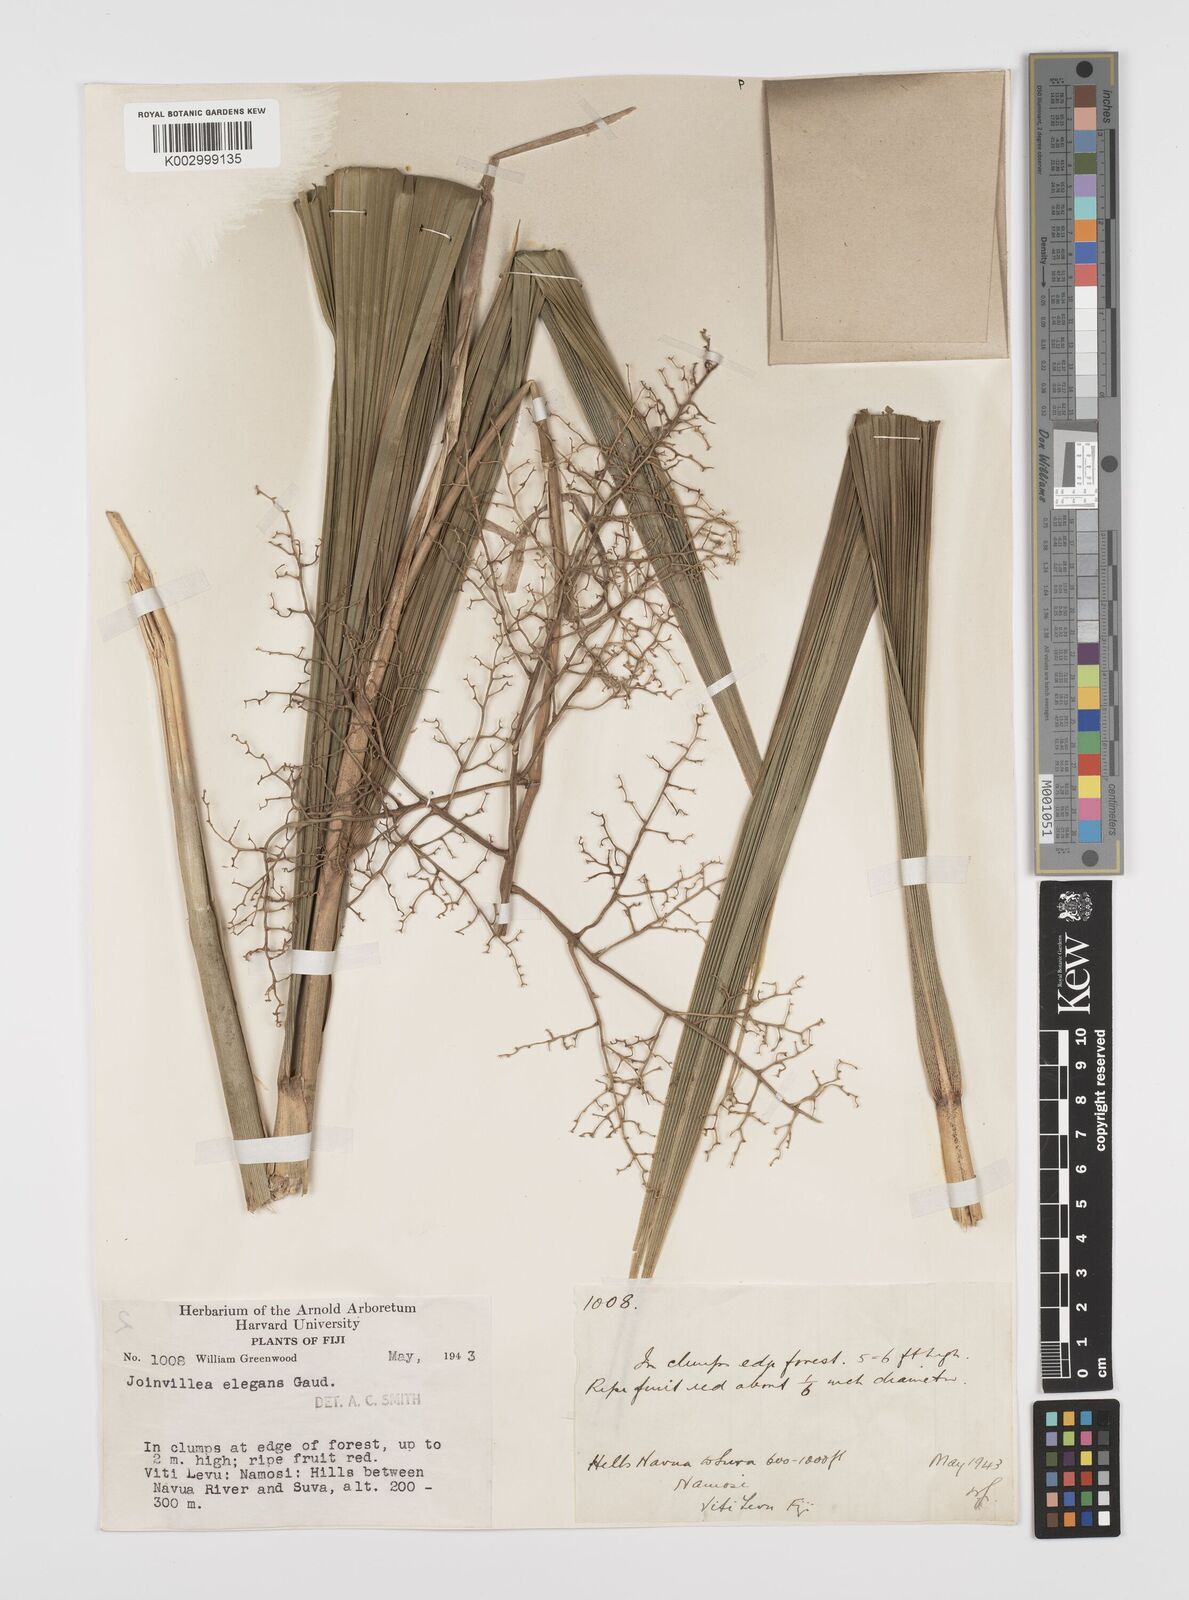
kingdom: Plantae
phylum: Tracheophyta
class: Liliopsida
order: Poales
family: Joinvilleaceae
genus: Joinvillea
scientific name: Joinvillea plicata
